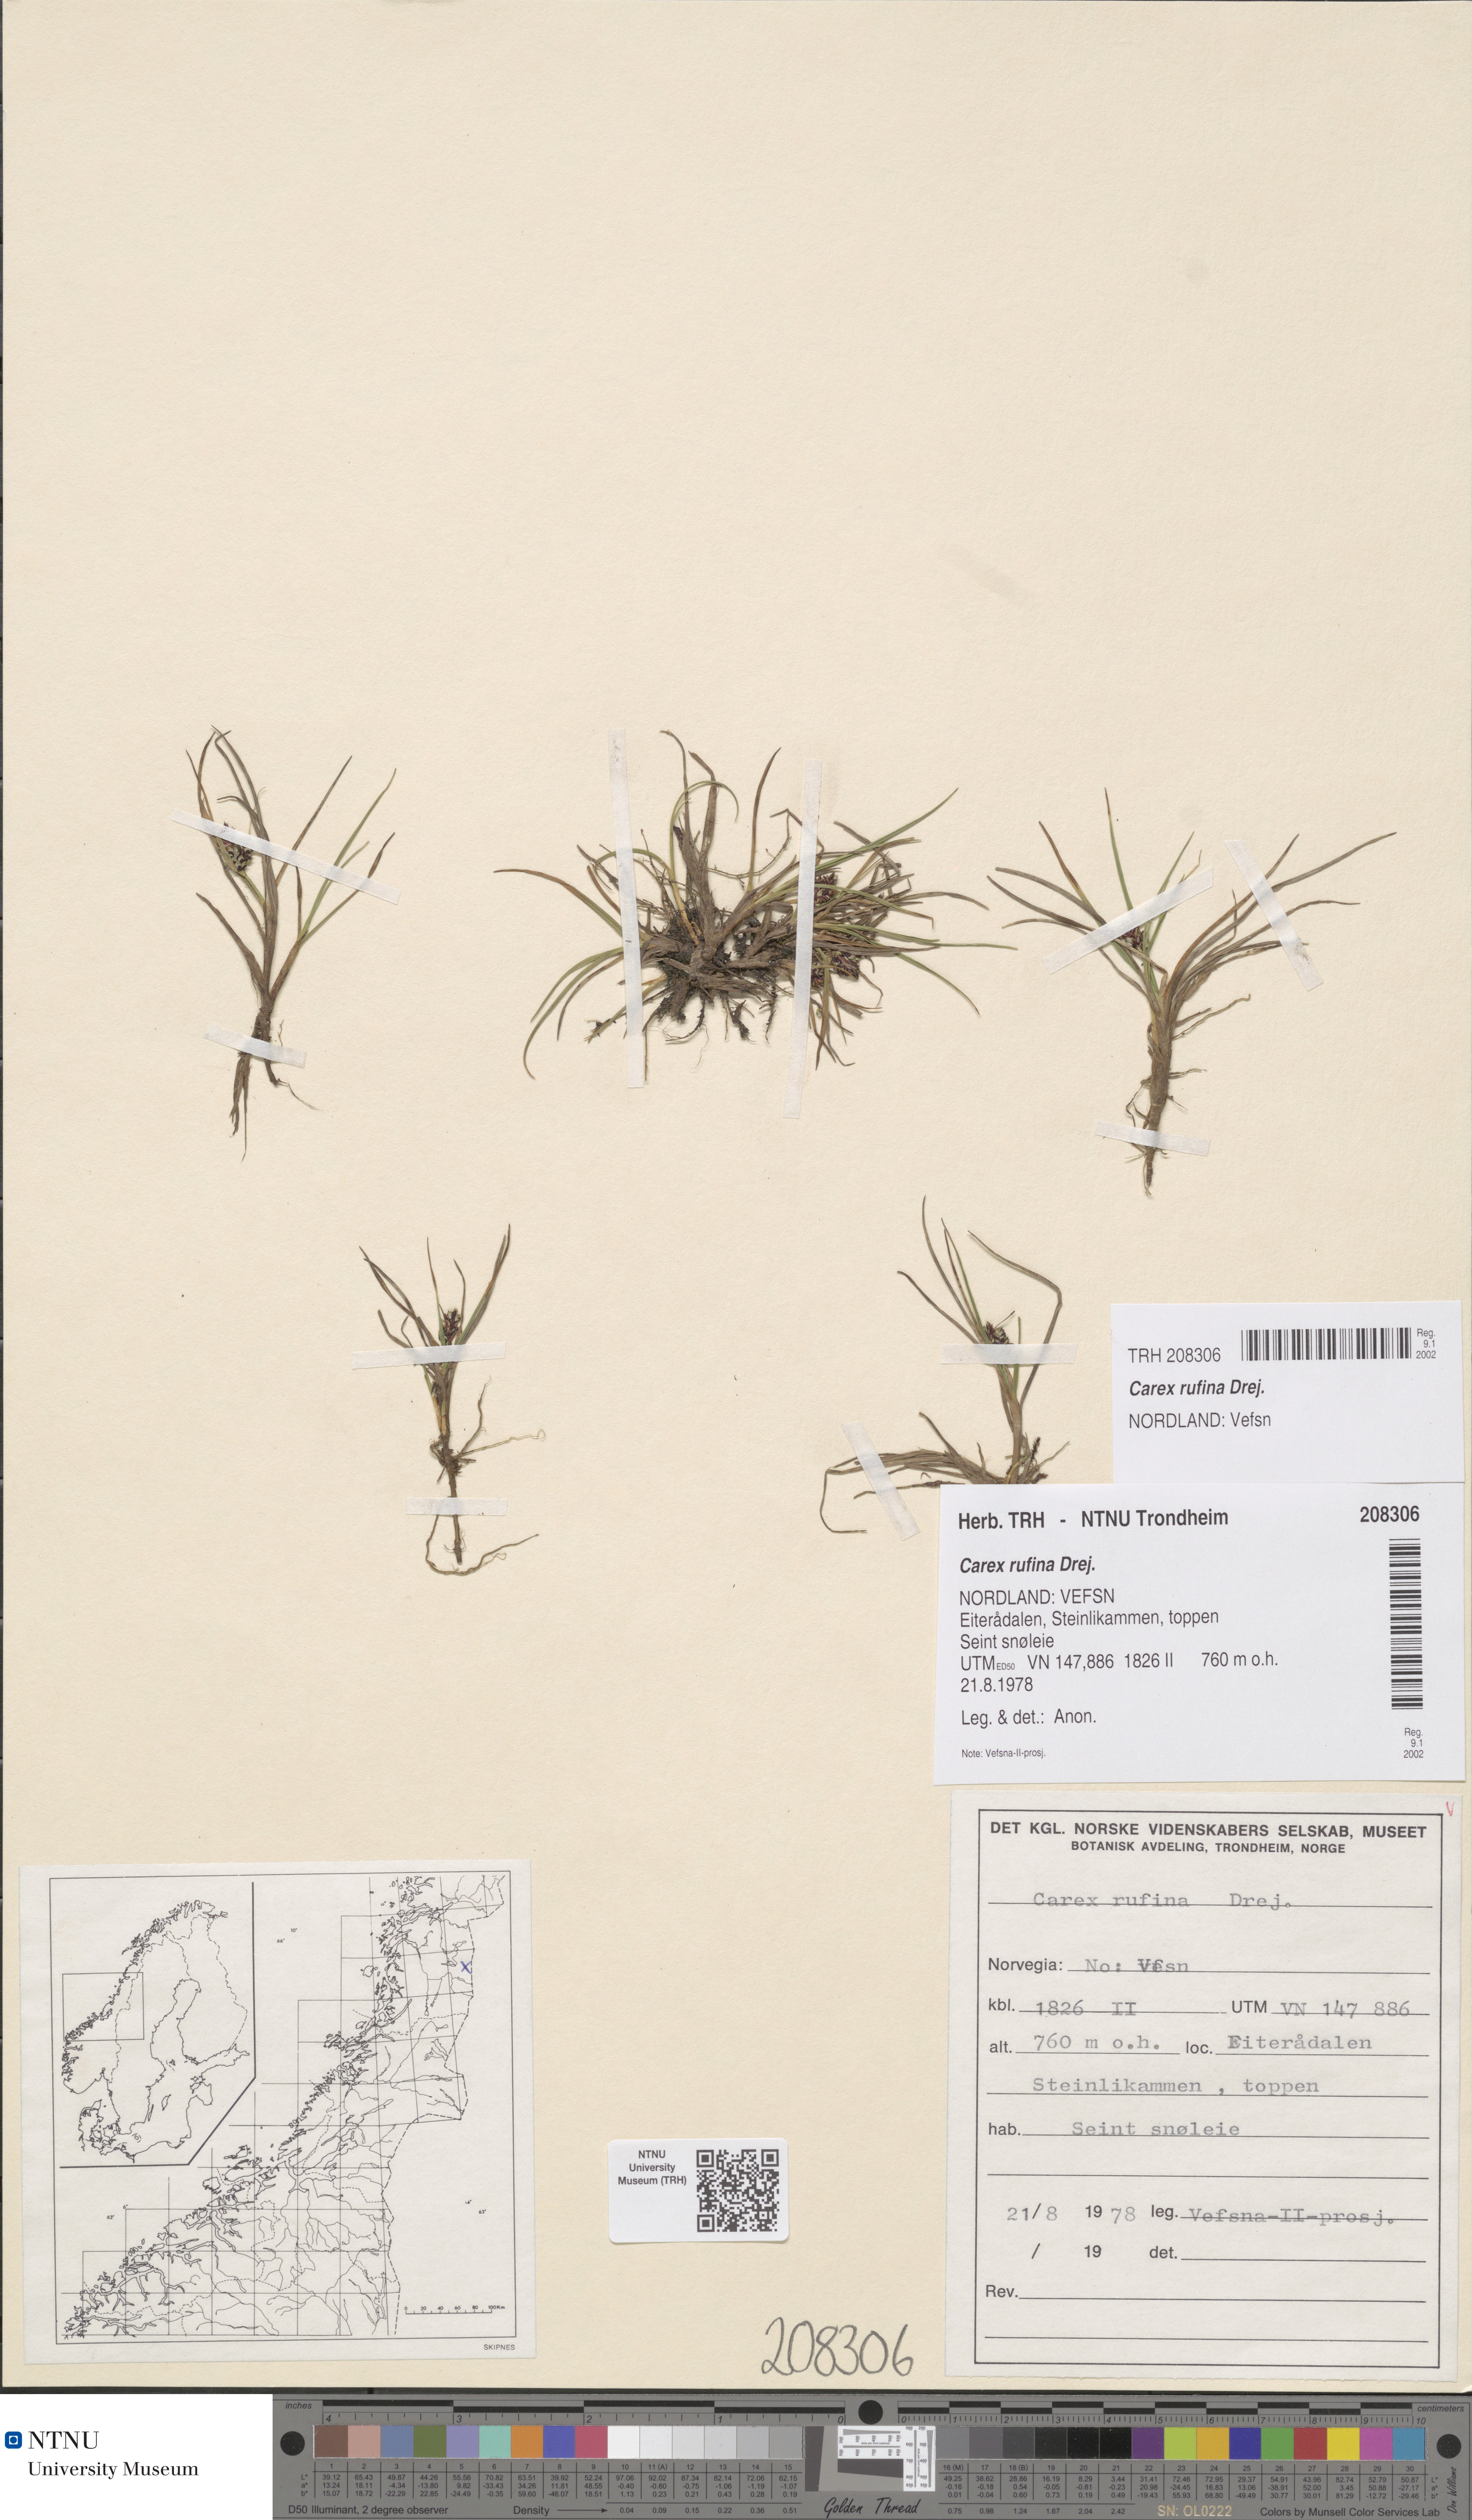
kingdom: Plantae
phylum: Tracheophyta
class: Liliopsida
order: Poales
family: Cyperaceae
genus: Carex
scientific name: Carex rufina
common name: Reddish sedge
